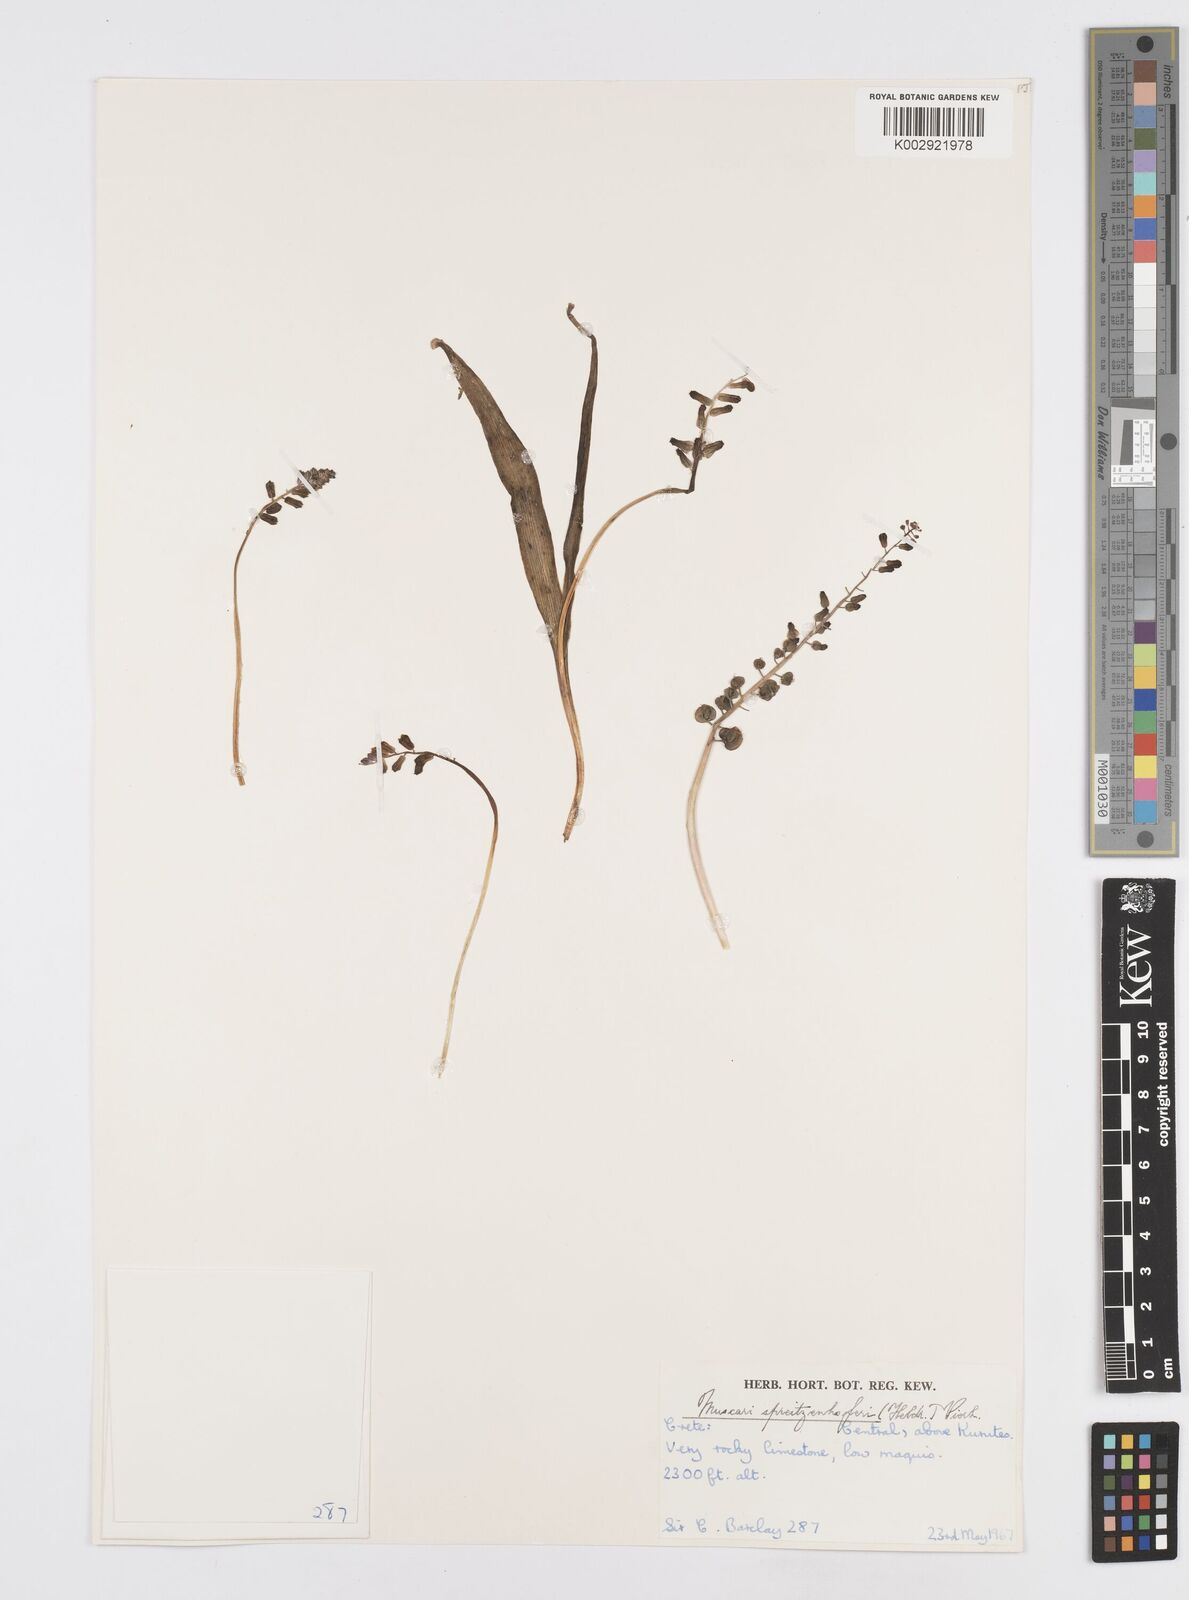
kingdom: Plantae
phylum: Tracheophyta
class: Liliopsida
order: Asparagales
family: Asparagaceae
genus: Muscari
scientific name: Muscari spreitzenhoferi
